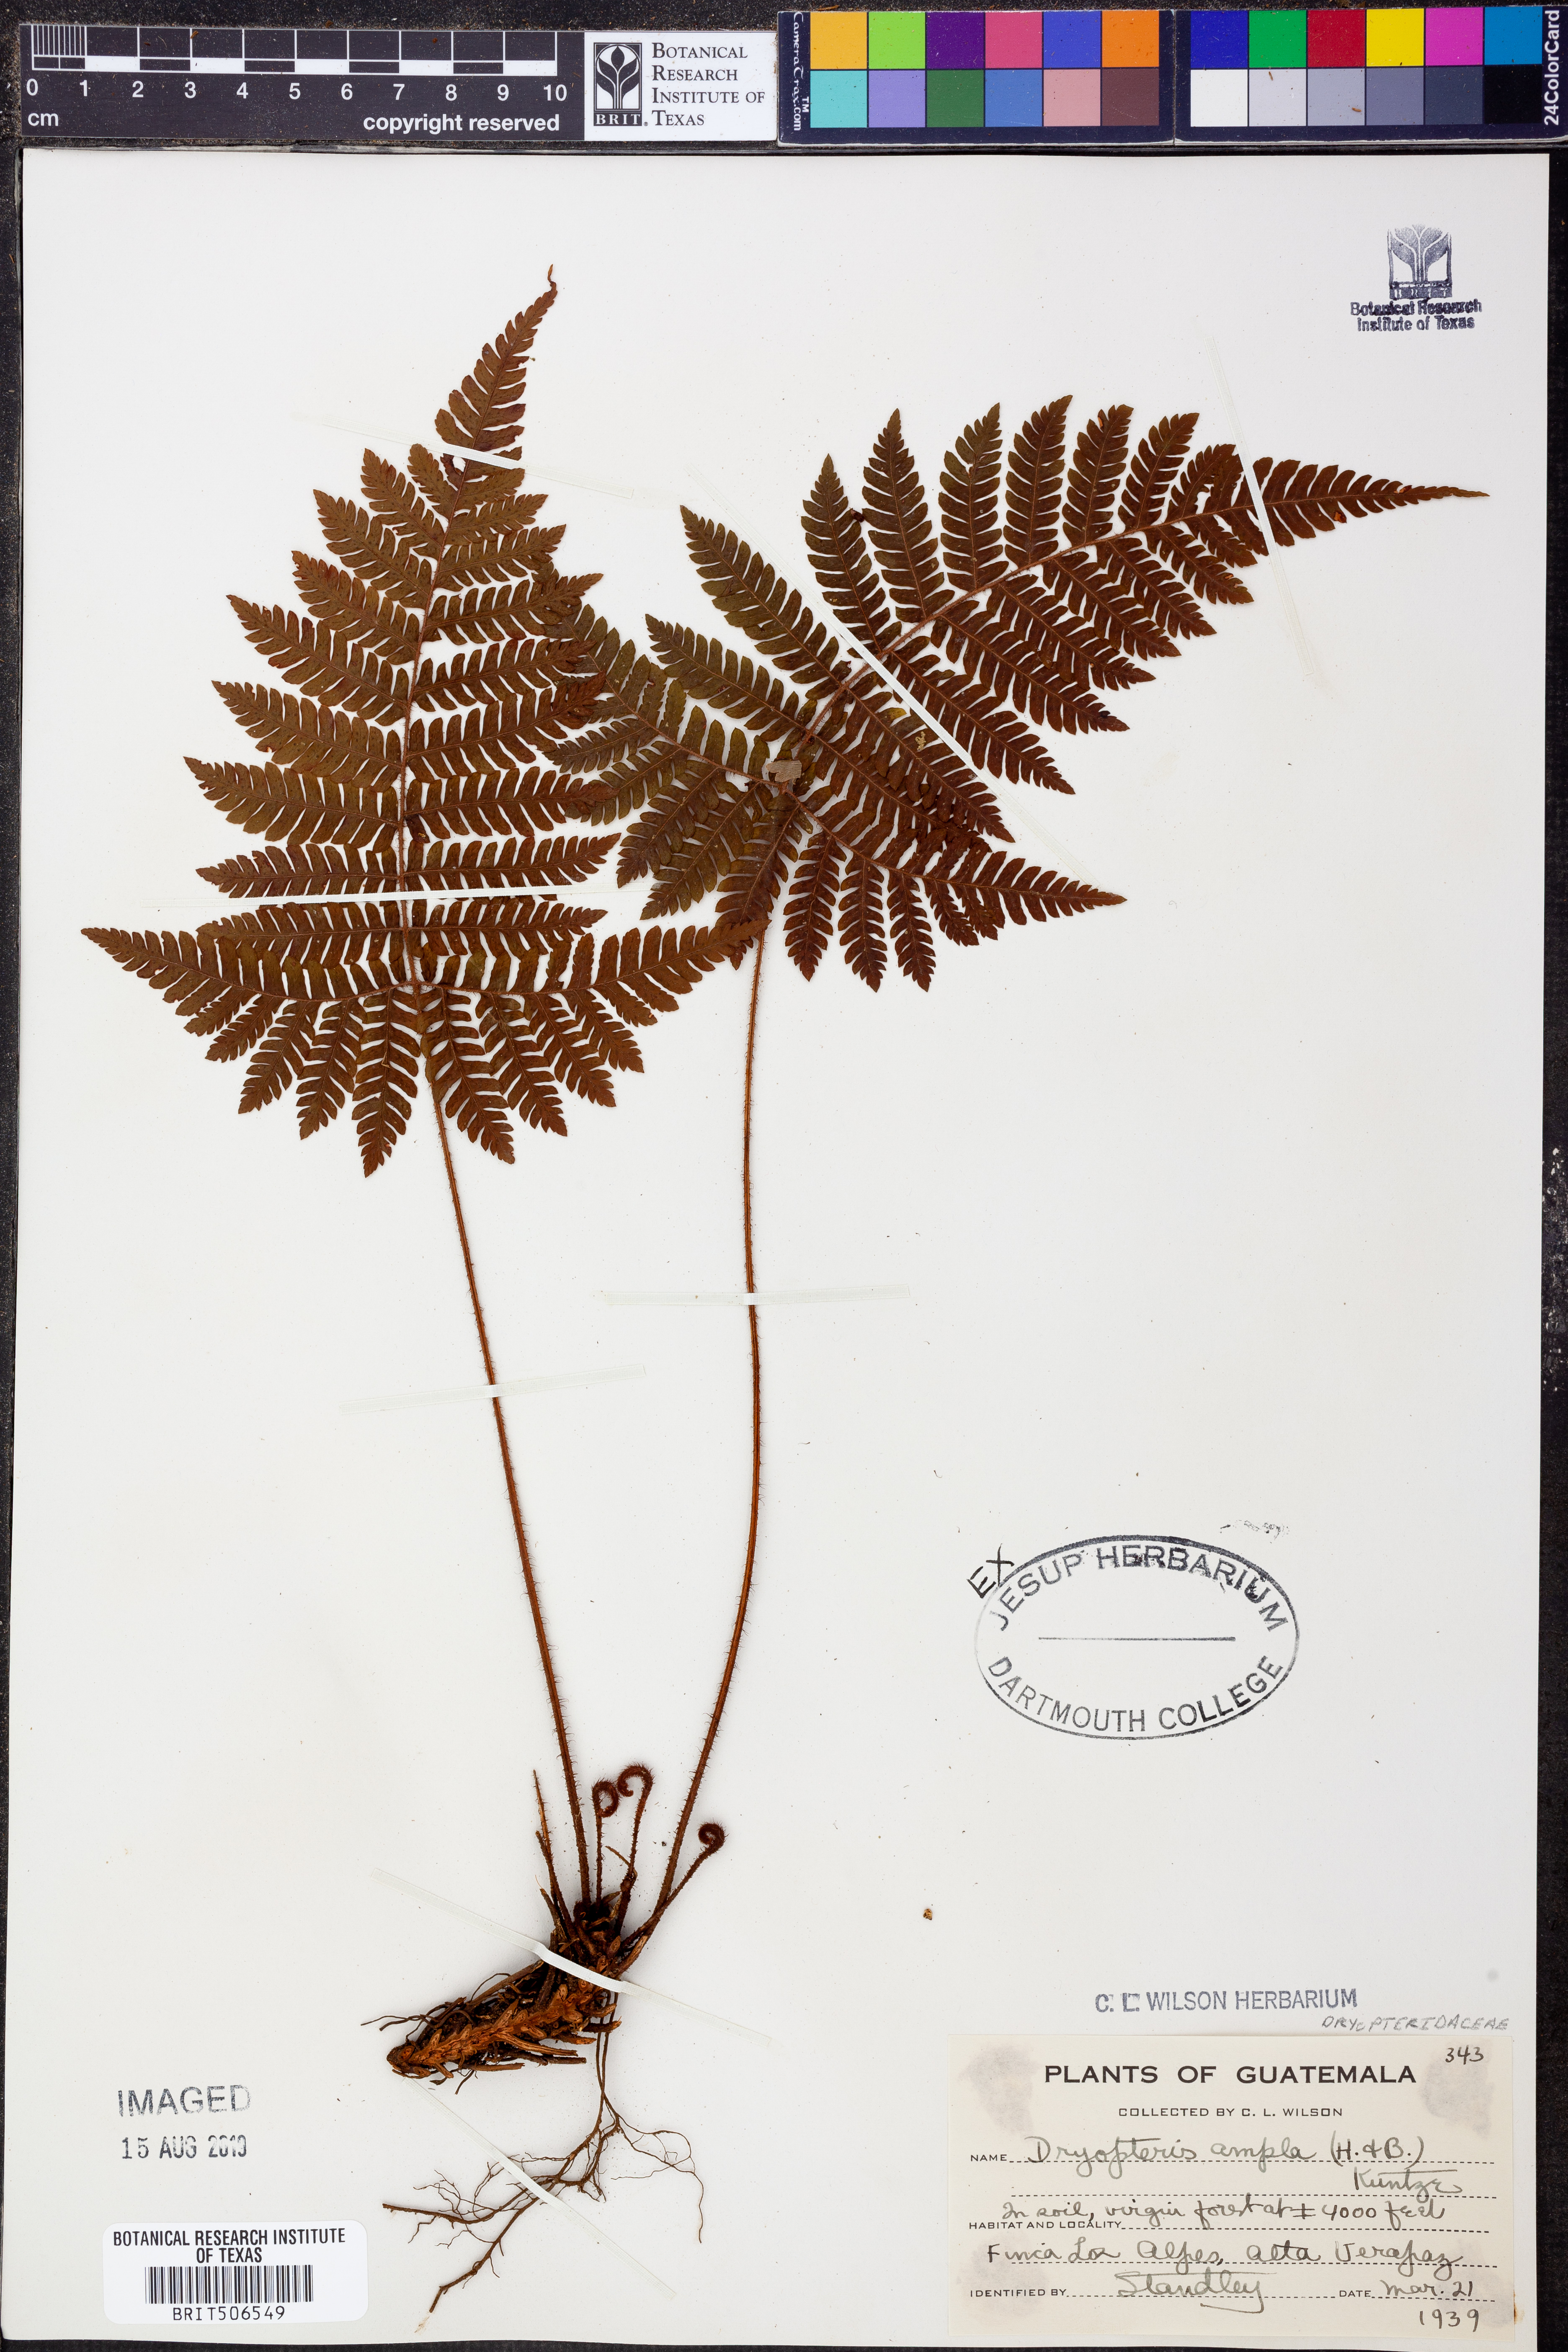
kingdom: Plantae
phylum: Tracheophyta
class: Polypodiopsida
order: Polypodiales
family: Dryopteridaceae
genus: Ctenitis
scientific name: Ctenitis sloanei
